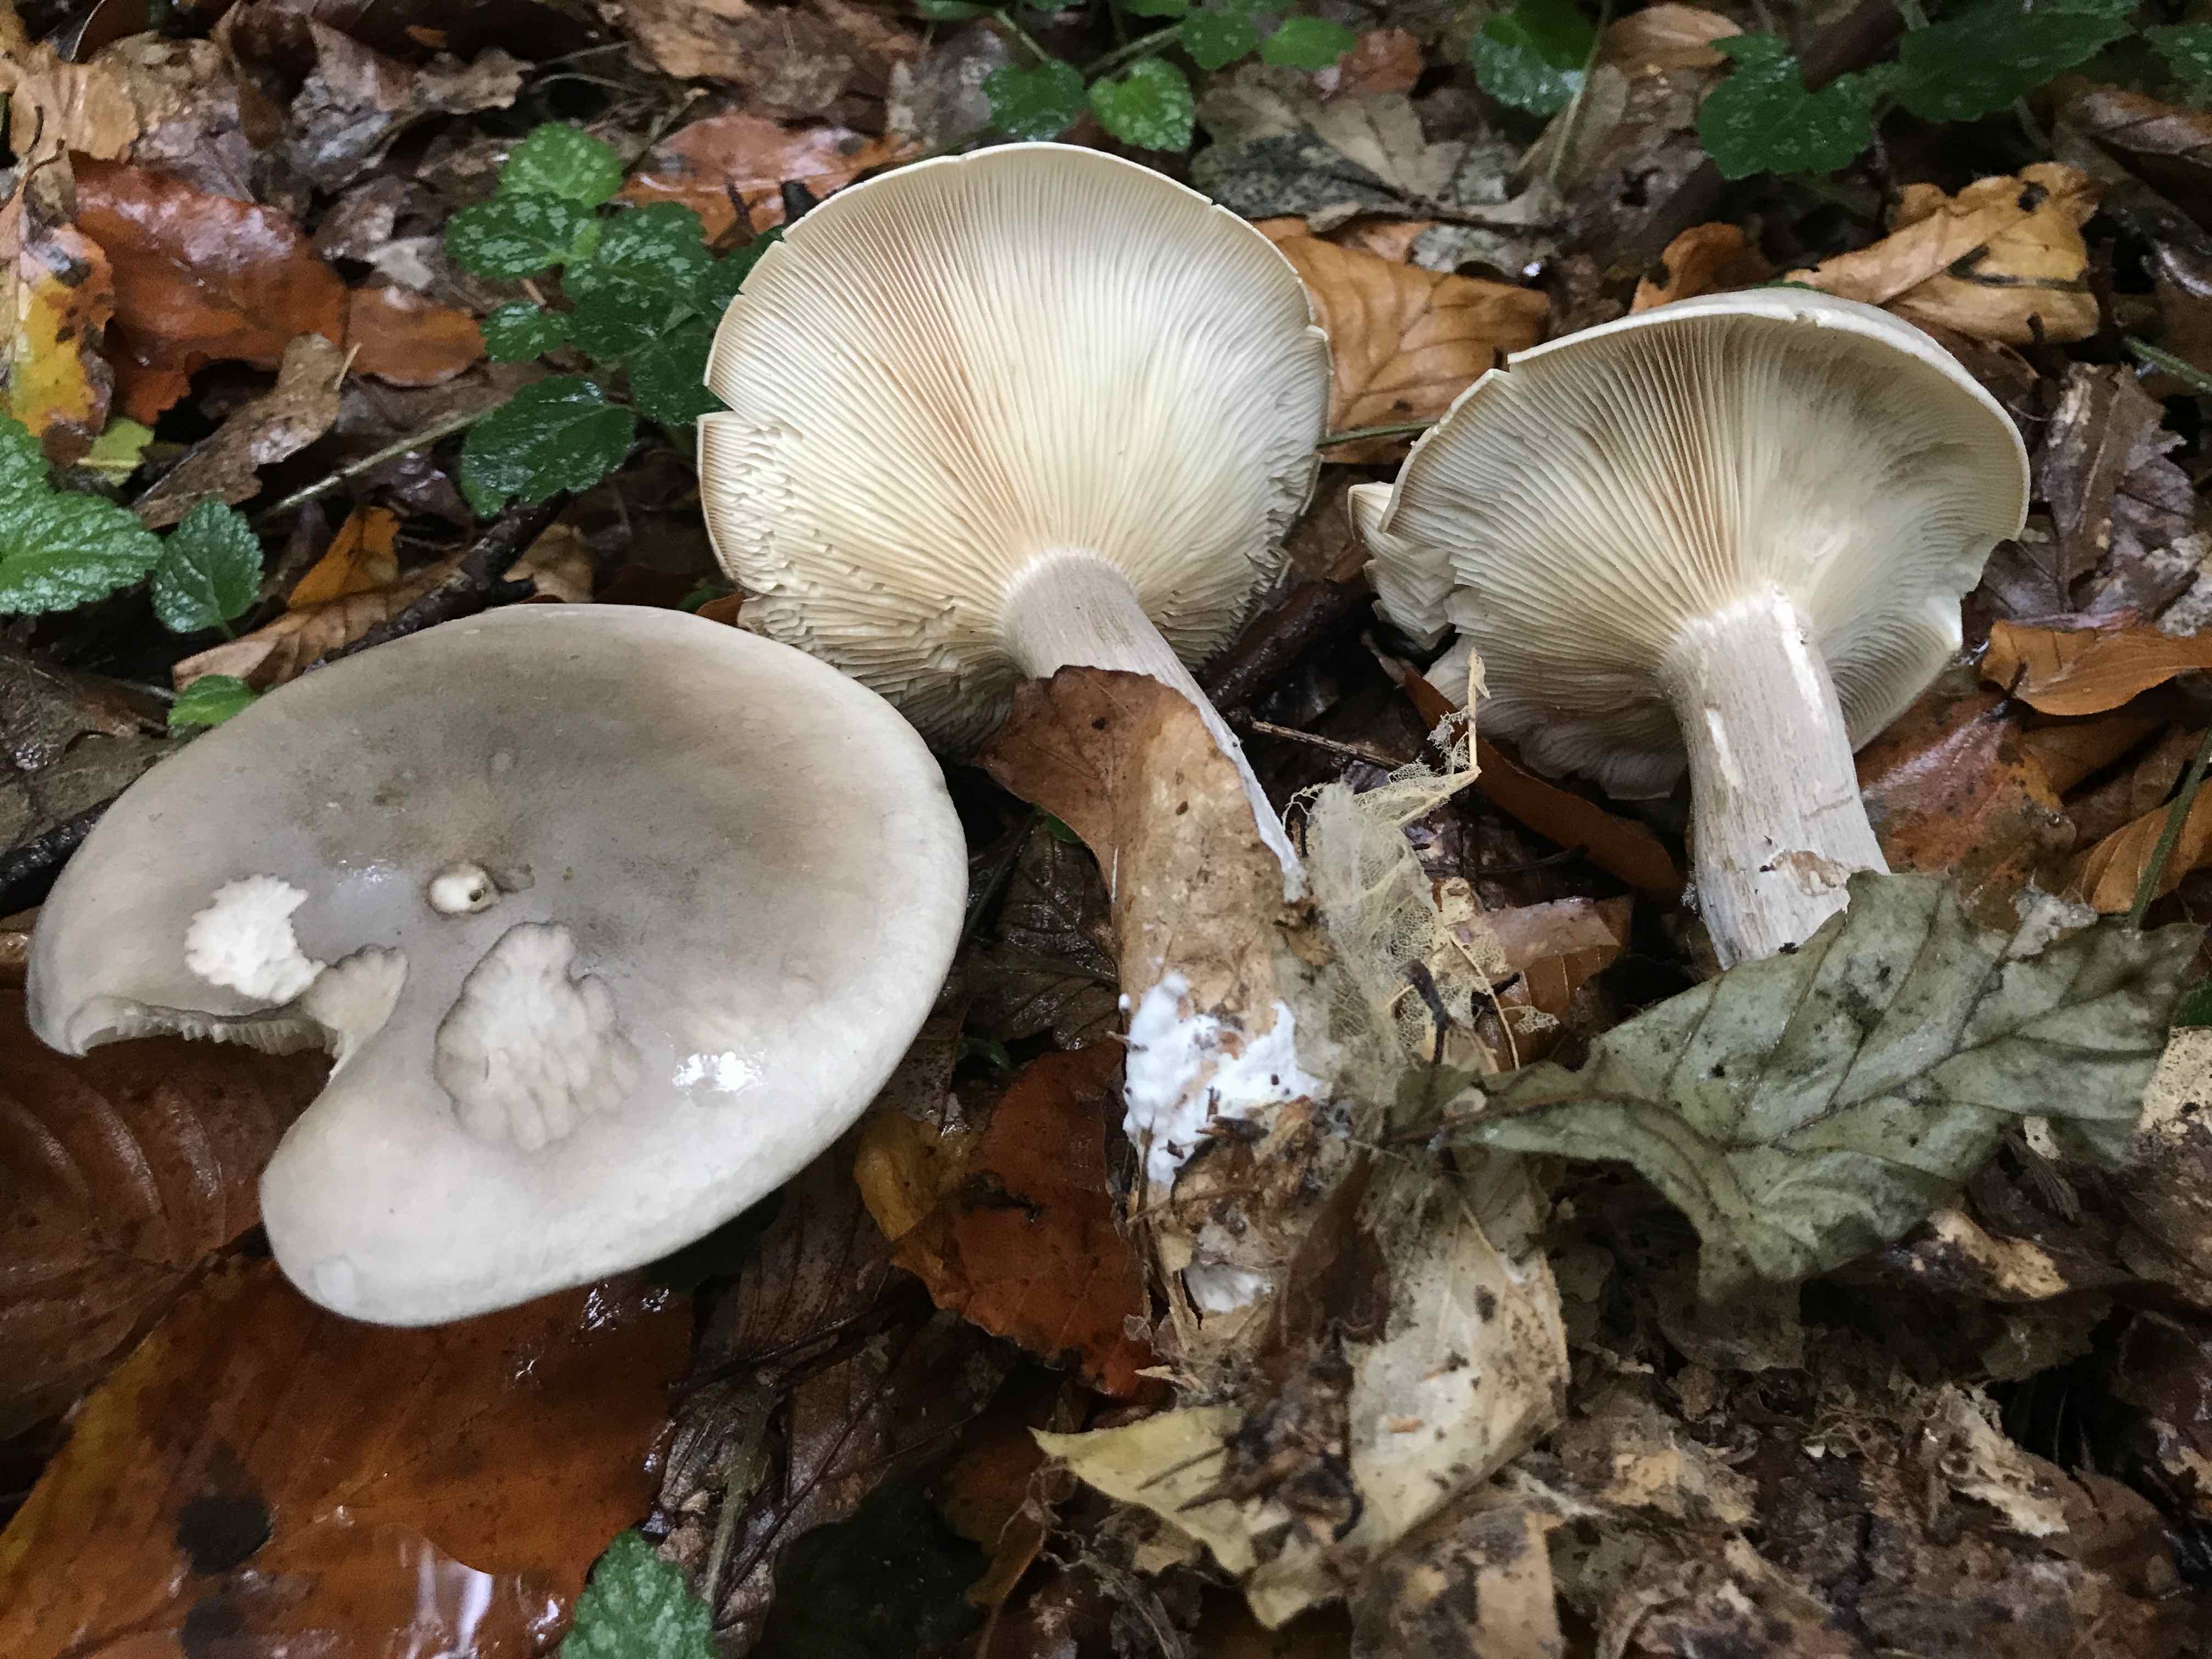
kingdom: Fungi
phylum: Basidiomycota
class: Agaricomycetes
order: Agaricales
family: Tricholomataceae
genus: Clitocybe
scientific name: Clitocybe nebularis
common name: tåge-tragthat
